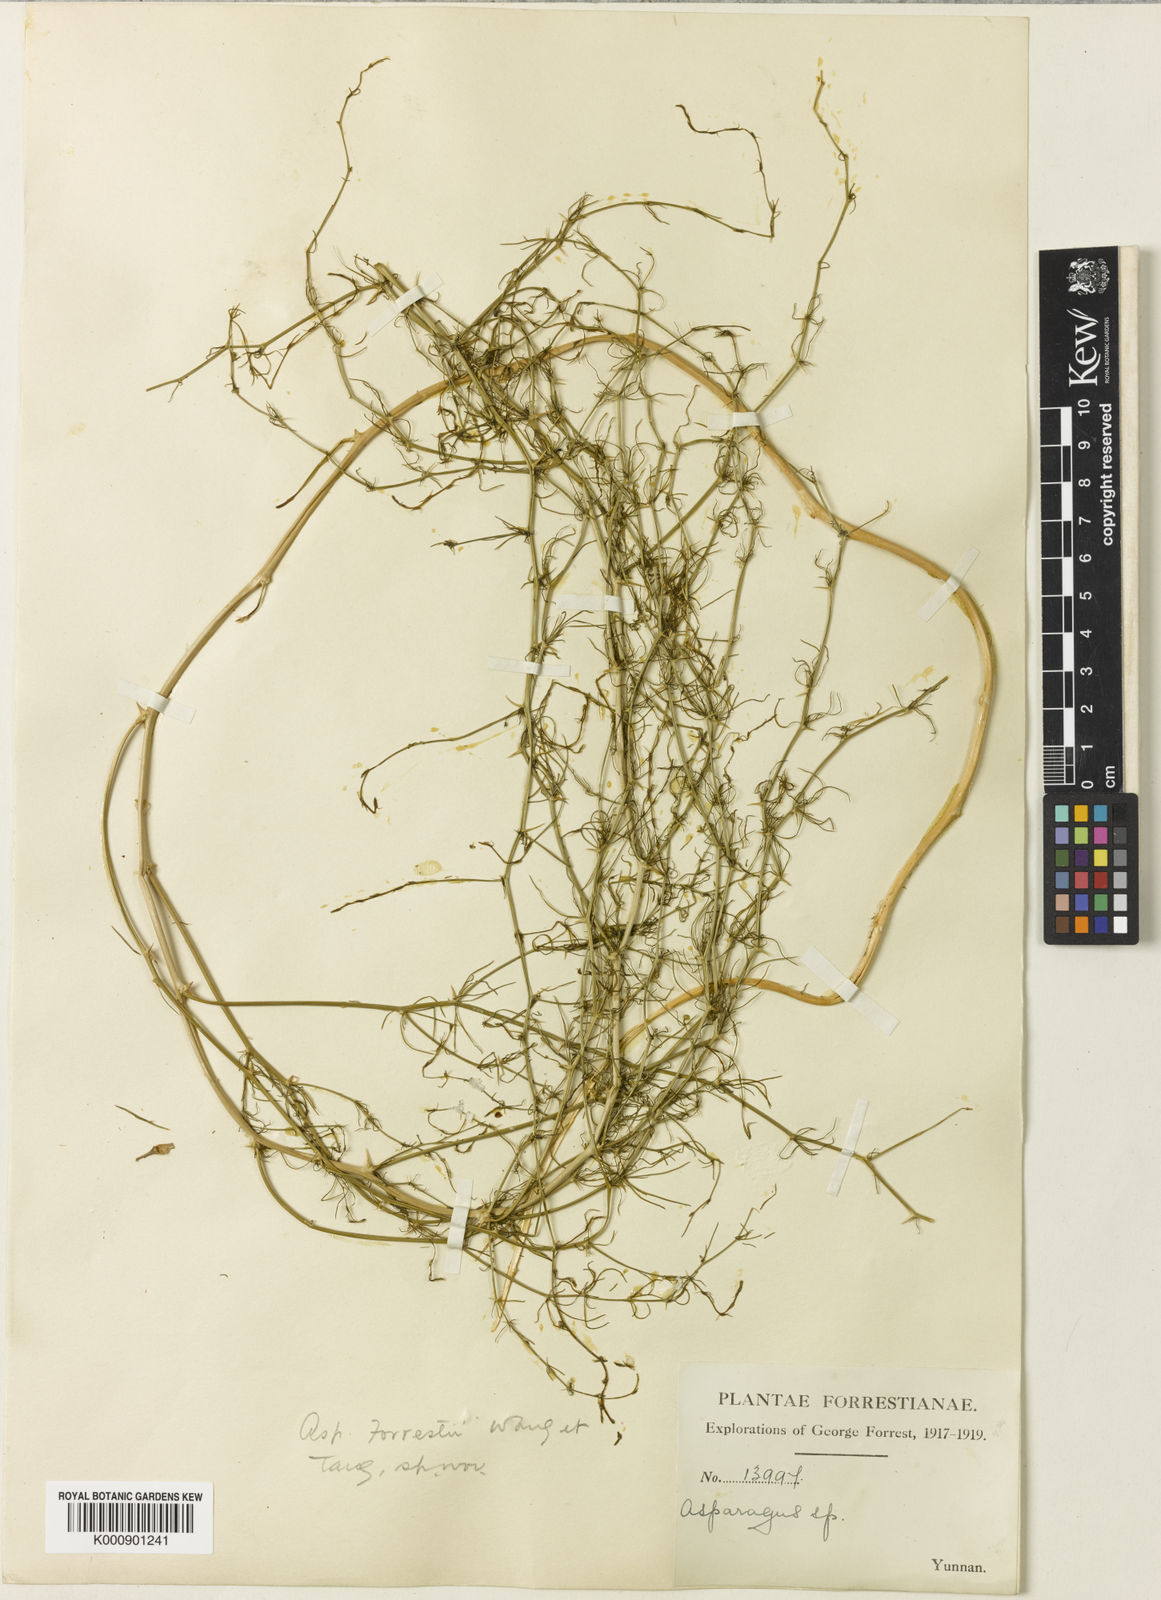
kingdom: Plantae
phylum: Tracheophyta
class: Liliopsida
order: Asparagales
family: Asparagaceae
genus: Asparagus
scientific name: Asparagus
